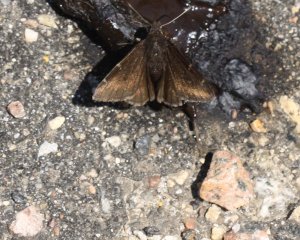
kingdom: Animalia
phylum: Arthropoda
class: Insecta
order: Lepidoptera
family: Hesperiidae
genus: Autochton
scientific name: Autochton
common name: Northern Cloudywing
